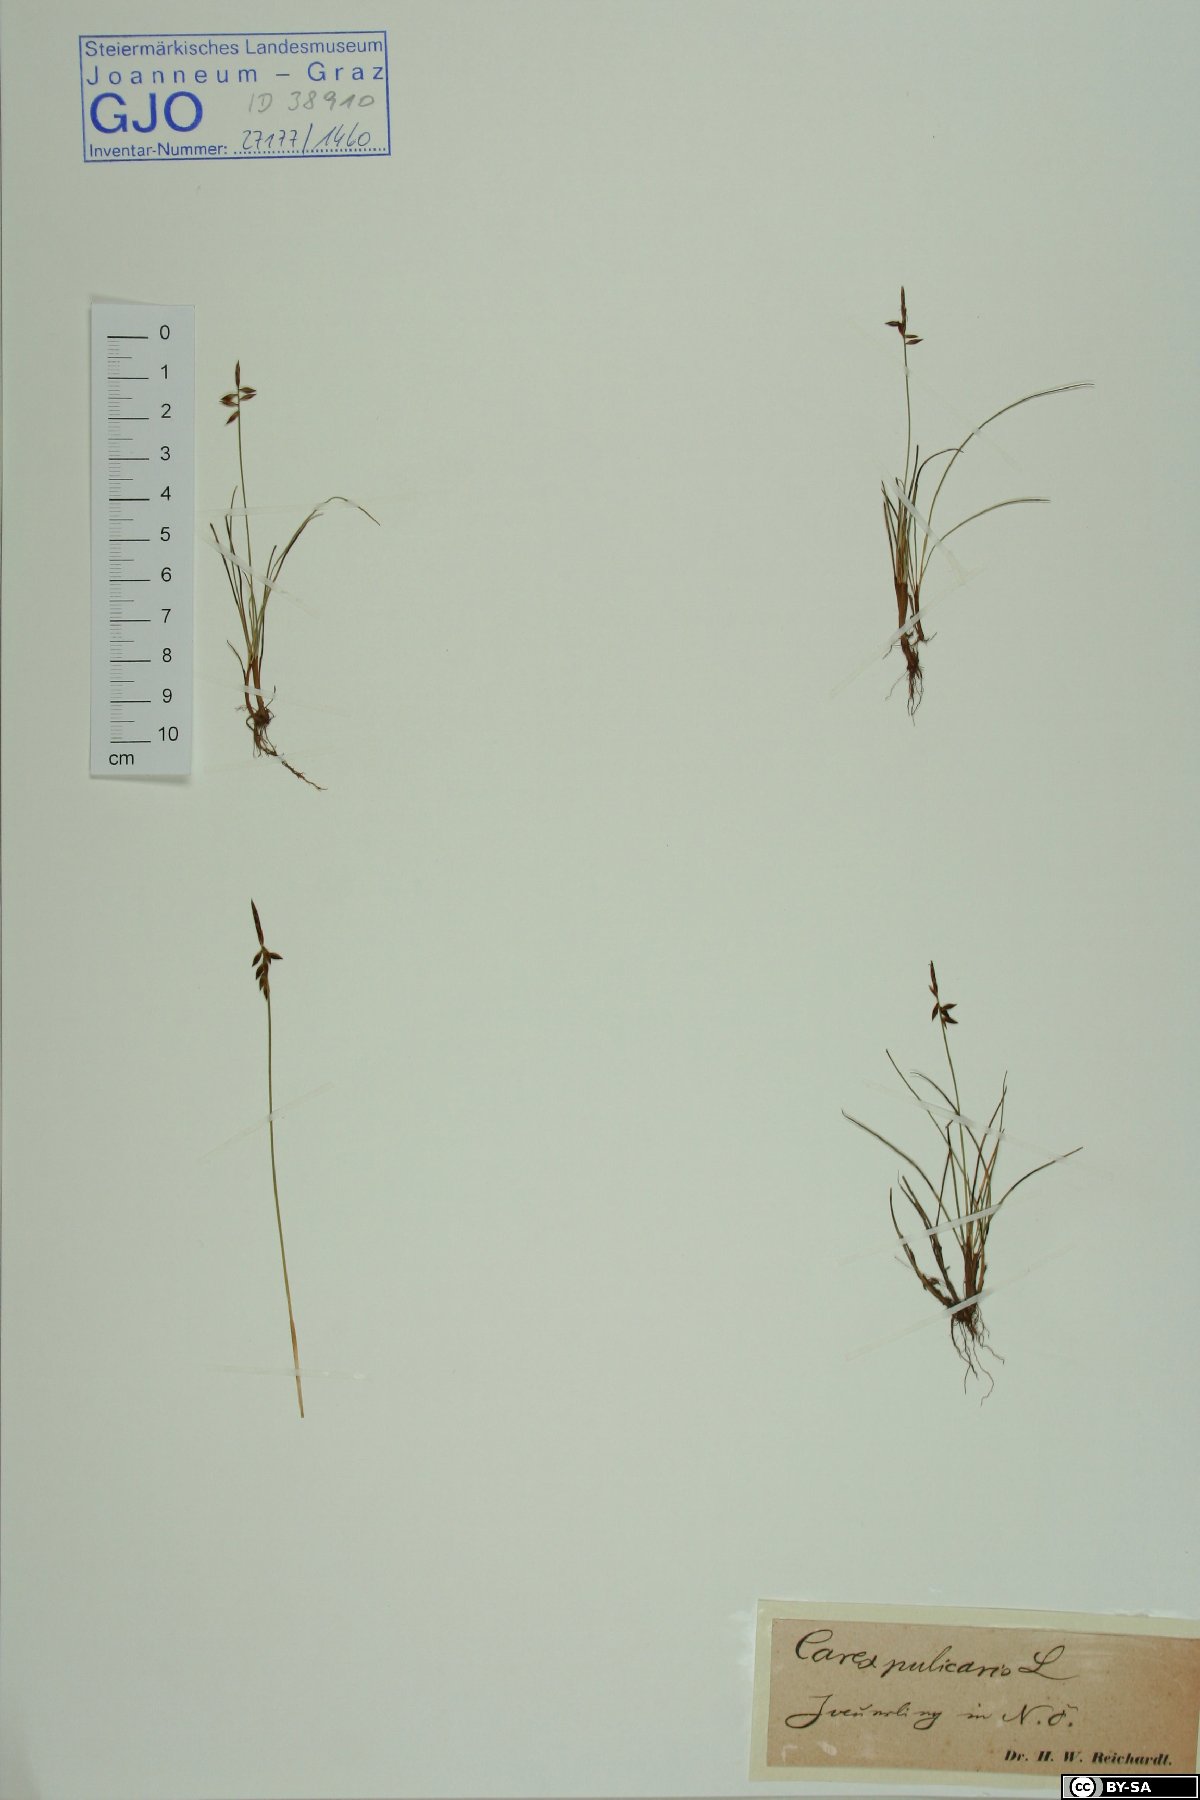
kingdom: Plantae
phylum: Tracheophyta
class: Liliopsida
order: Poales
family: Cyperaceae
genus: Carex
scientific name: Carex pulicaris
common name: Flea sedge
